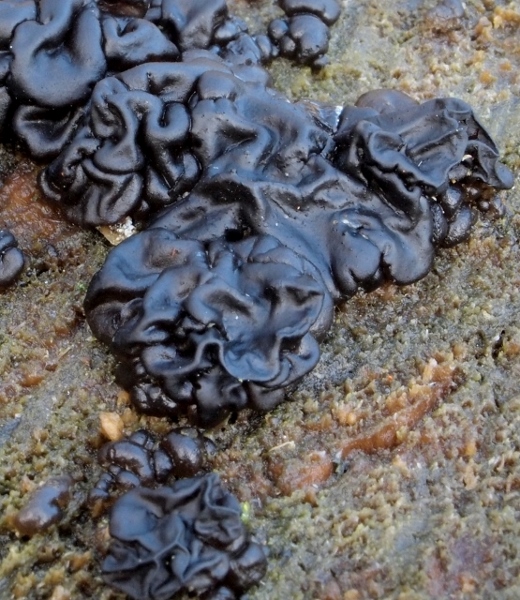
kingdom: Fungi
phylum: Basidiomycota
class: Agaricomycetes
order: Auriculariales
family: Auriculariaceae
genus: Exidia
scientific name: Exidia nigricans
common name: almindelig bævretop
